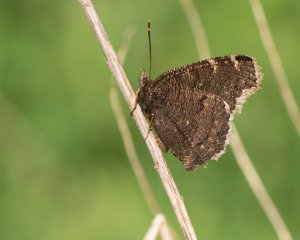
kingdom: Animalia
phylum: Arthropoda
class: Insecta
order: Lepidoptera
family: Nymphalidae
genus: Nymphalis
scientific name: Nymphalis antiopa
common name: Mourning Cloak
